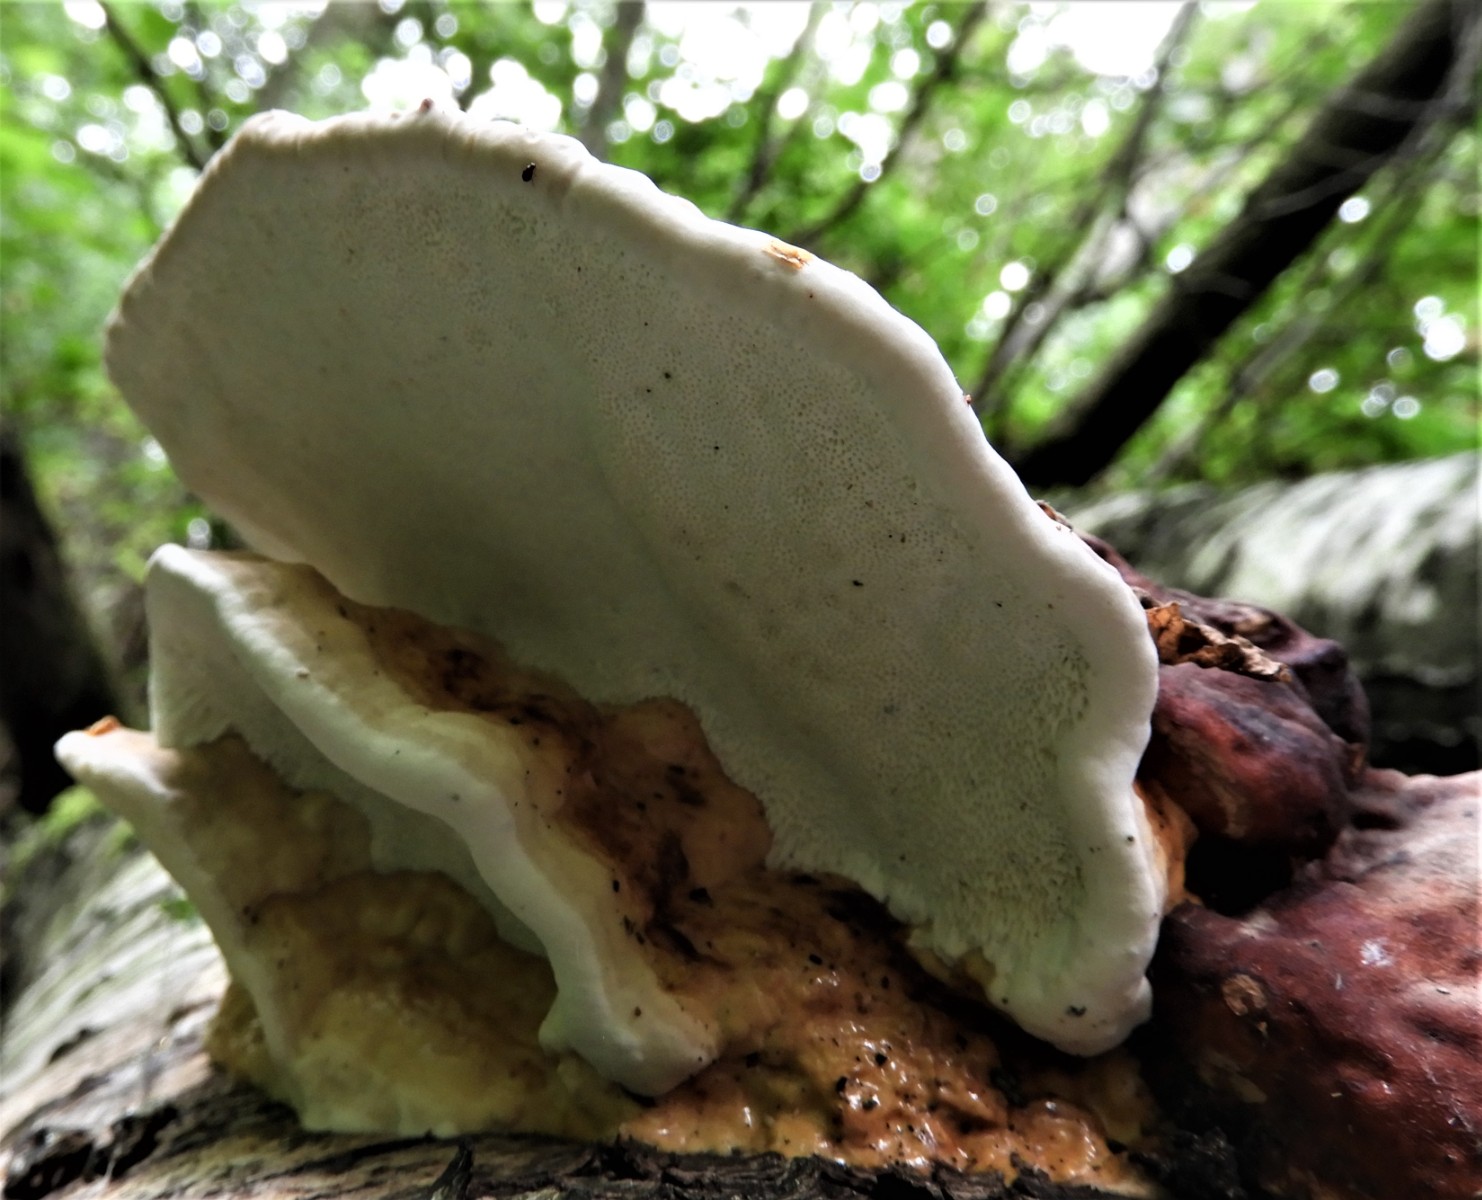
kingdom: Fungi
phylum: Basidiomycota
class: Agaricomycetes
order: Polyporales
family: Fomitopsidaceae
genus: Fomitopsis
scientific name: Fomitopsis pinicola
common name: randbæltet hovporesvamp
